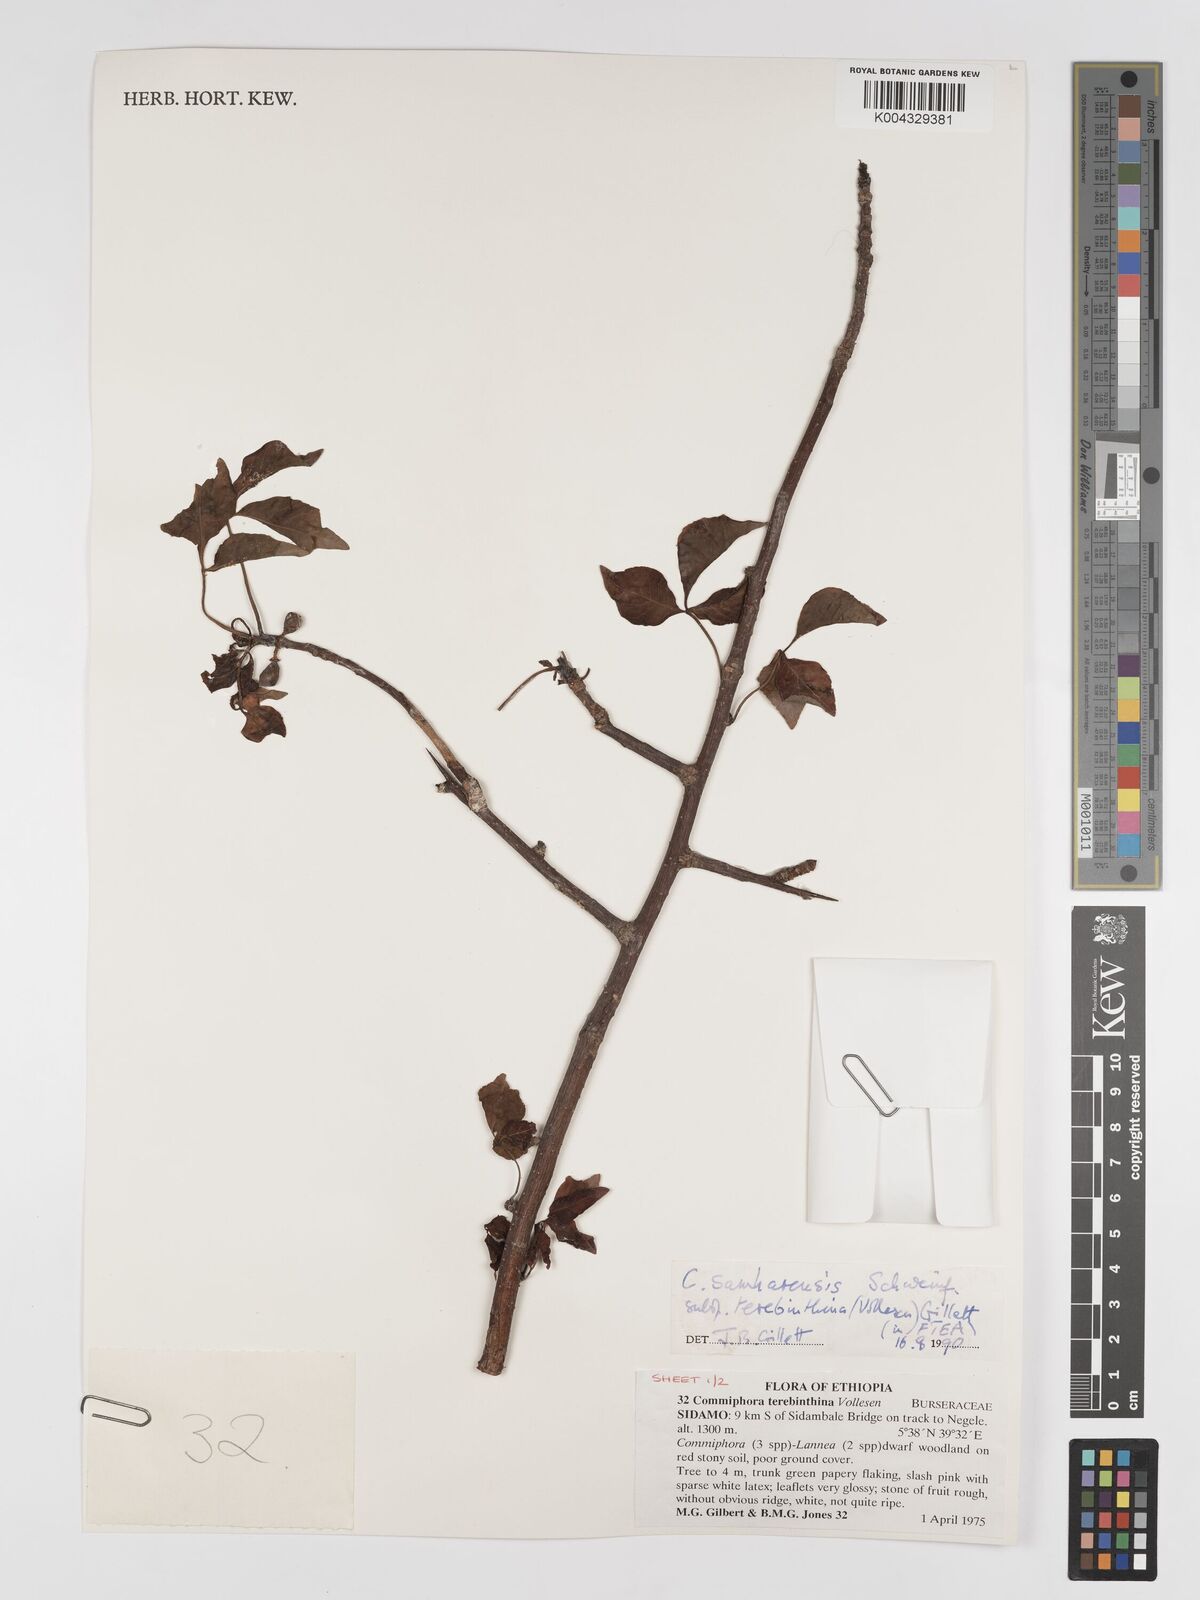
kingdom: Plantae
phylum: Tracheophyta
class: Magnoliopsida
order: Sapindales
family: Burseraceae
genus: Commiphora
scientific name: Commiphora samharensis
